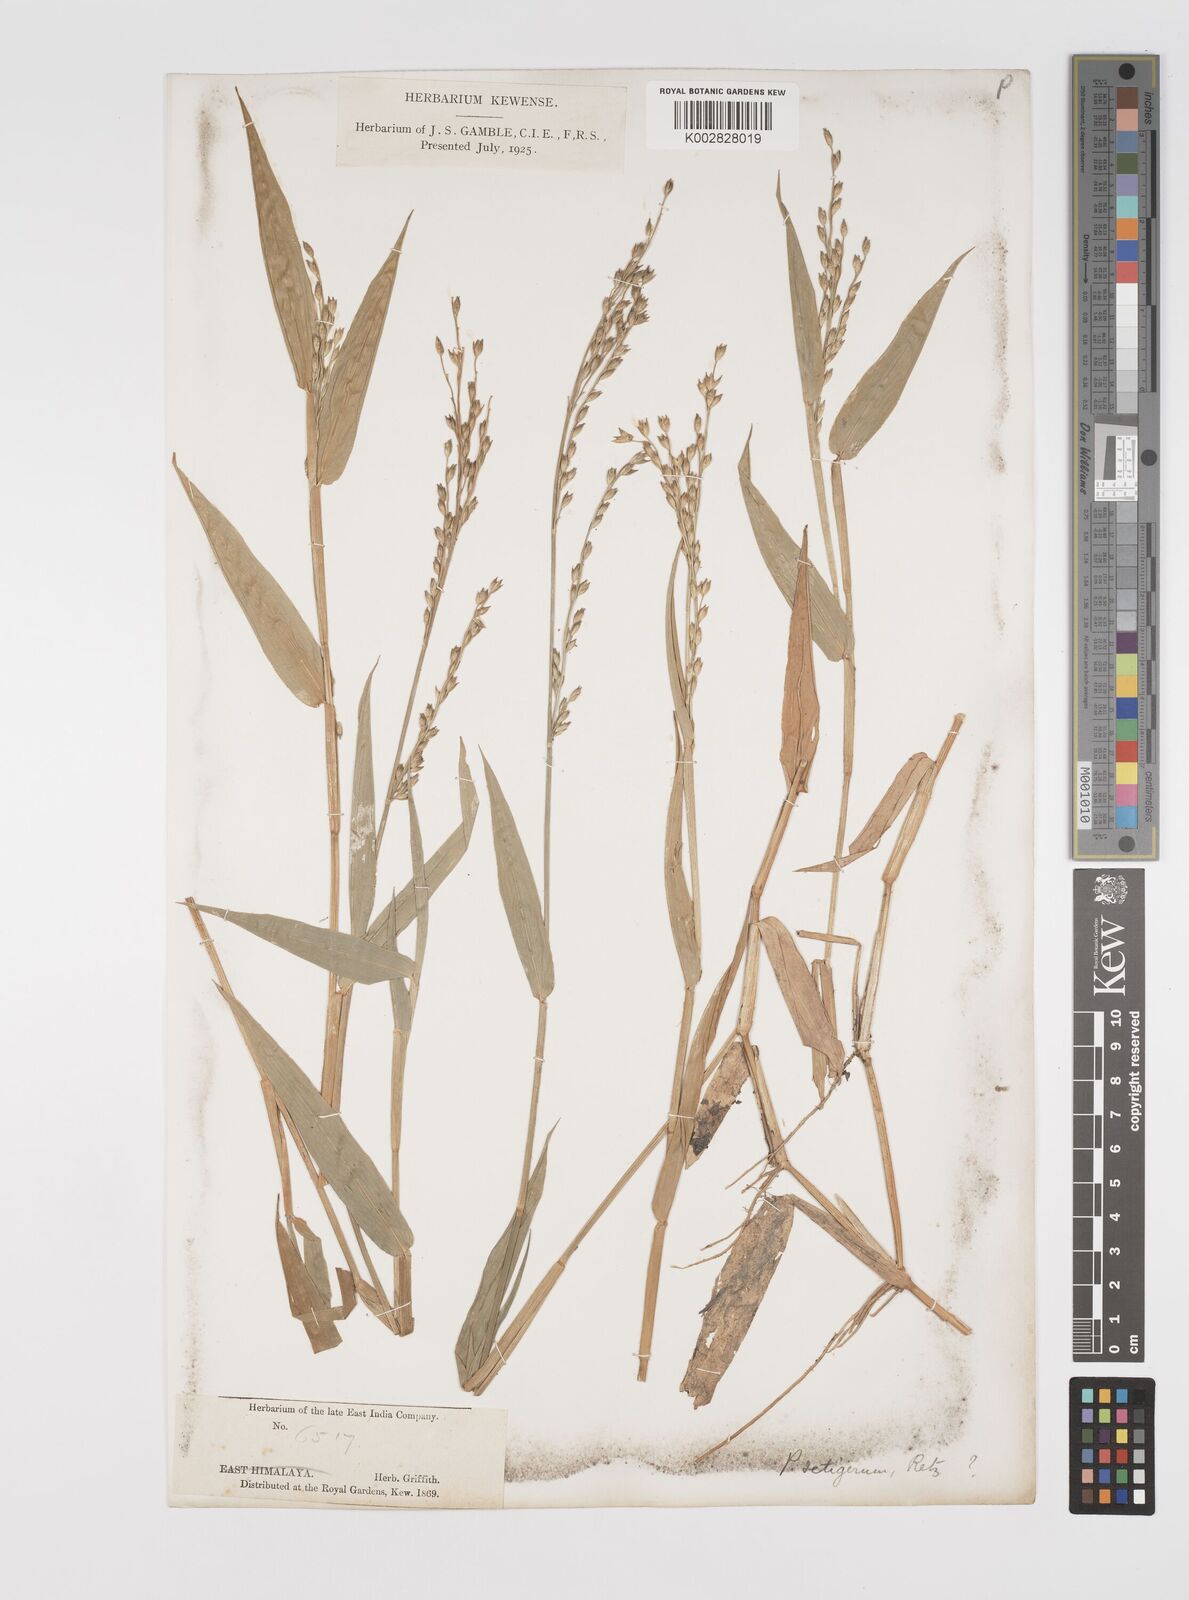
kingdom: Plantae
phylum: Tracheophyta
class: Liliopsida
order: Poales
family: Poaceae
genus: Acroceras
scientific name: Acroceras
